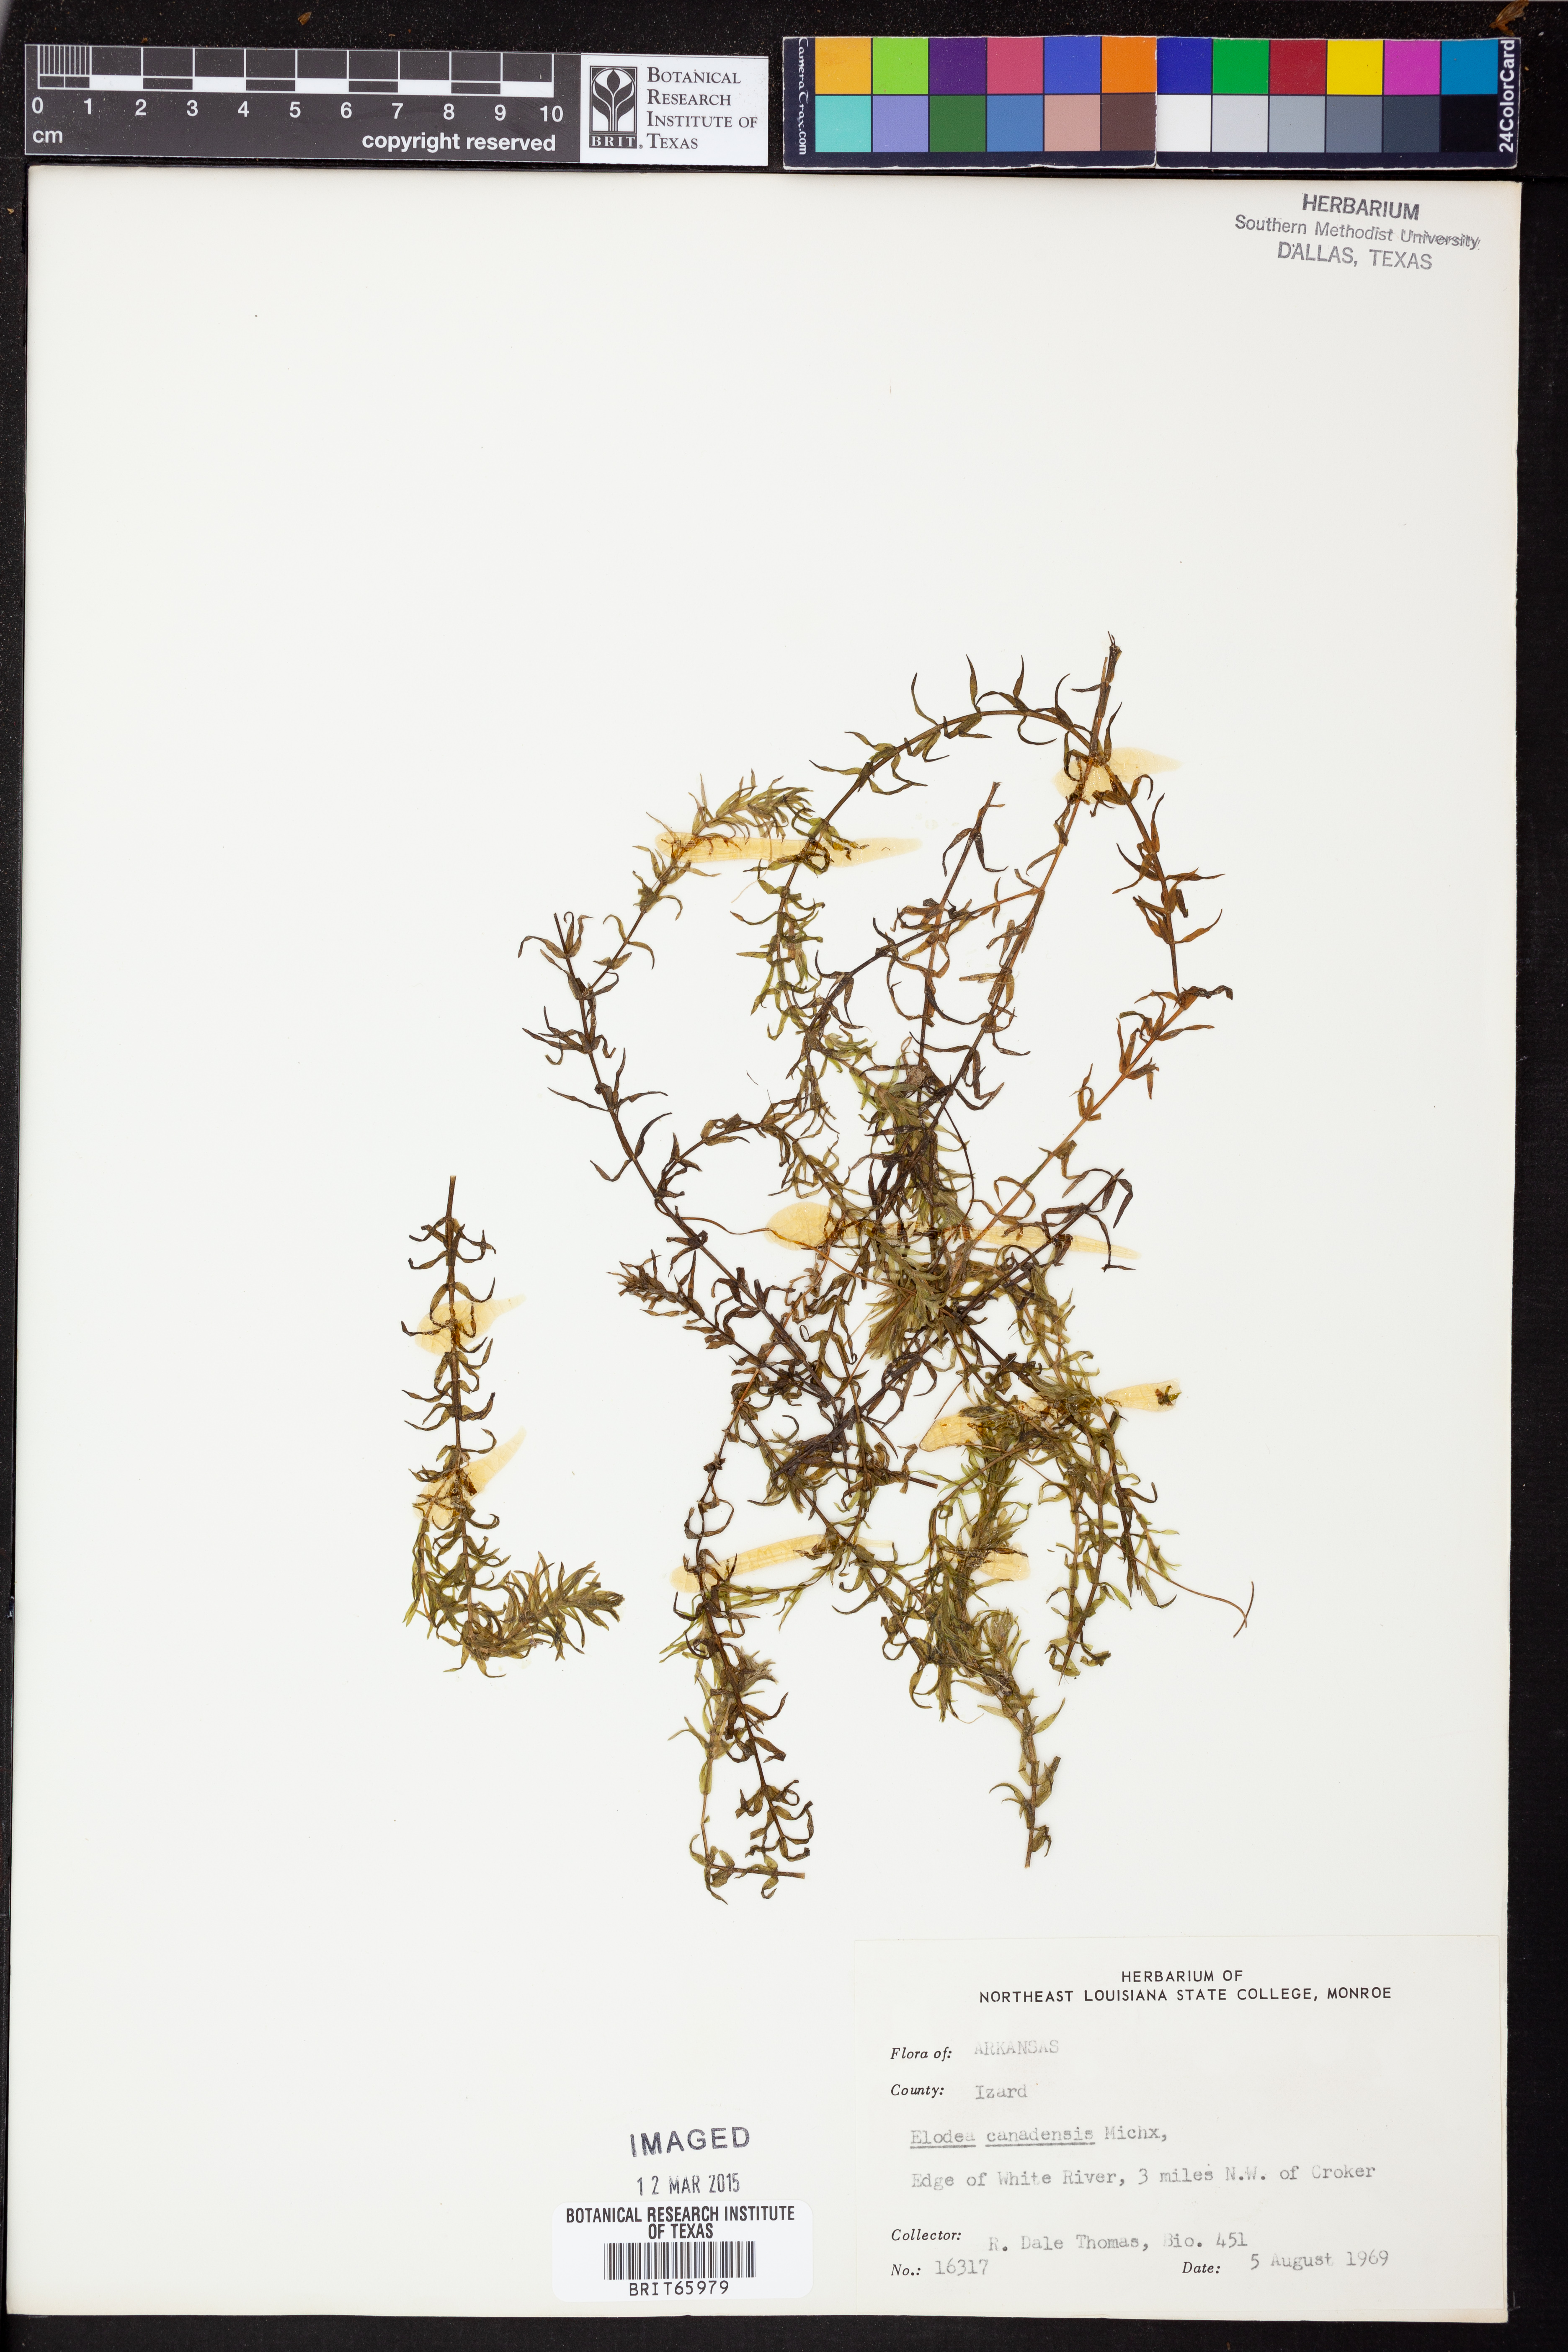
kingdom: Plantae
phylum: Tracheophyta
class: Liliopsida
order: Alismatales
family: Hydrocharitaceae
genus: Elodea
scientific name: Elodea canadensis
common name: Canadian waterweed
